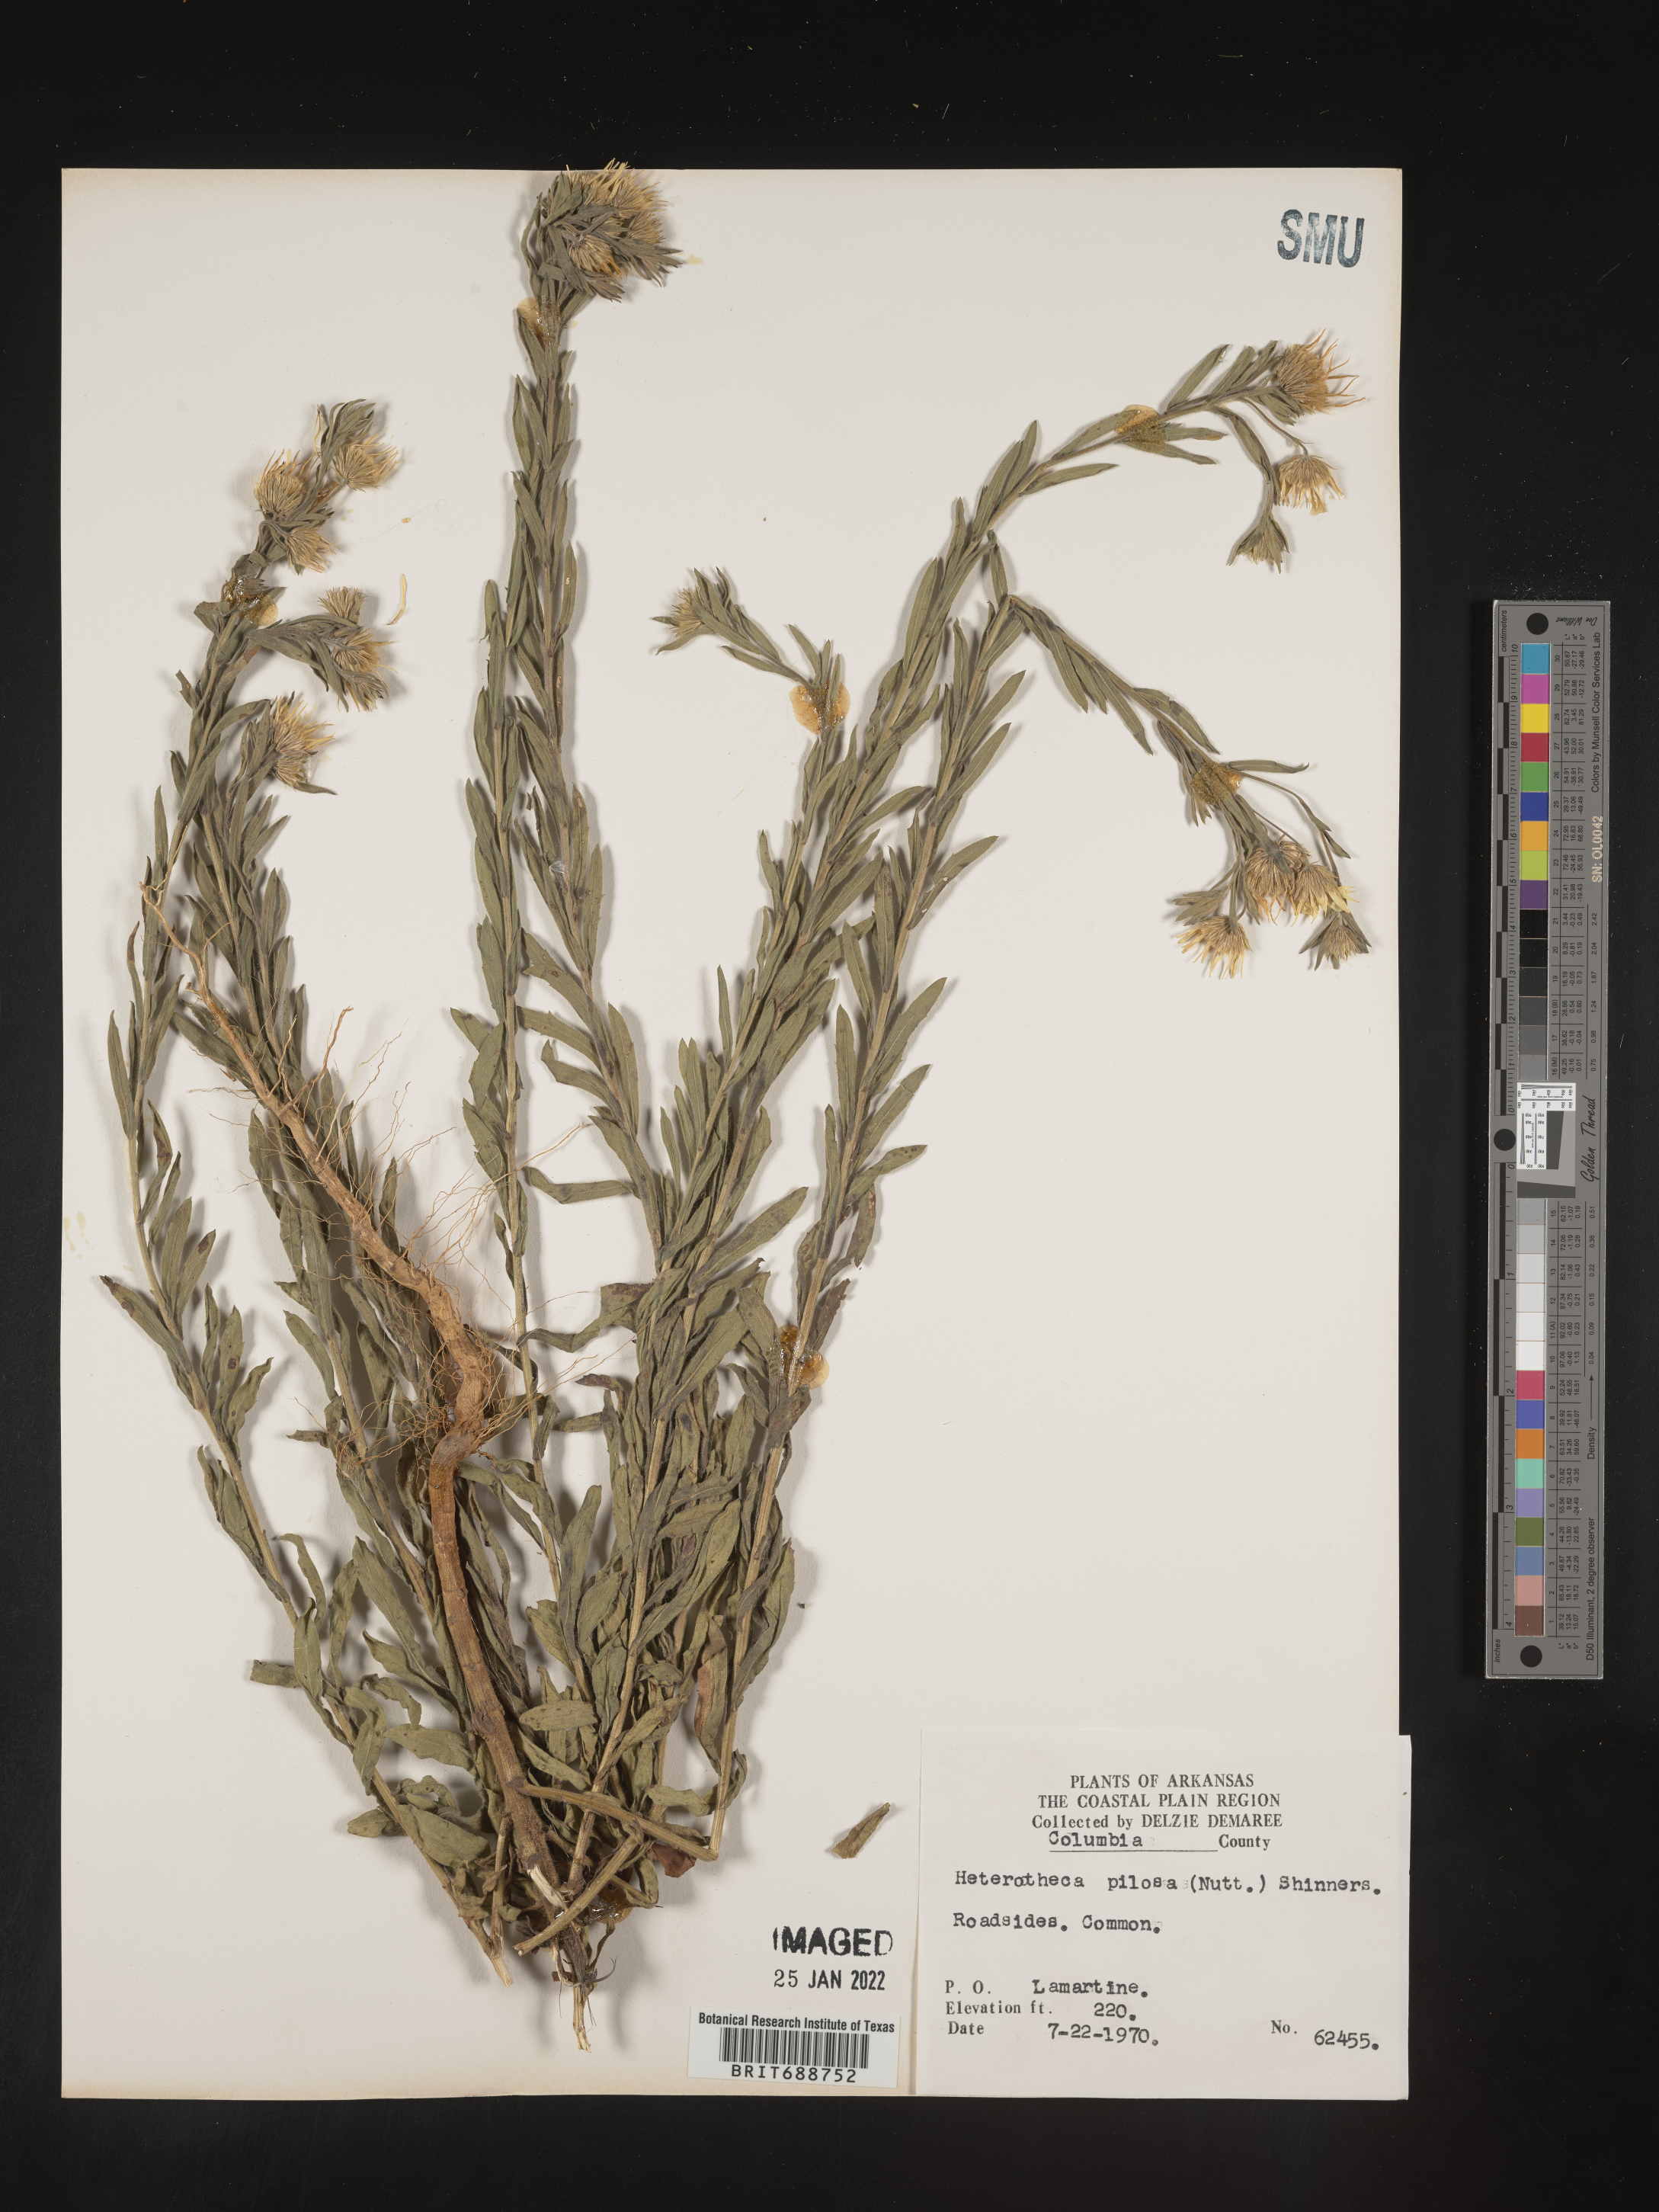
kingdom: Plantae
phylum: Tracheophyta
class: Magnoliopsida
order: Asterales
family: Asteraceae
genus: Bradburia
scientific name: Bradburia pilosa
